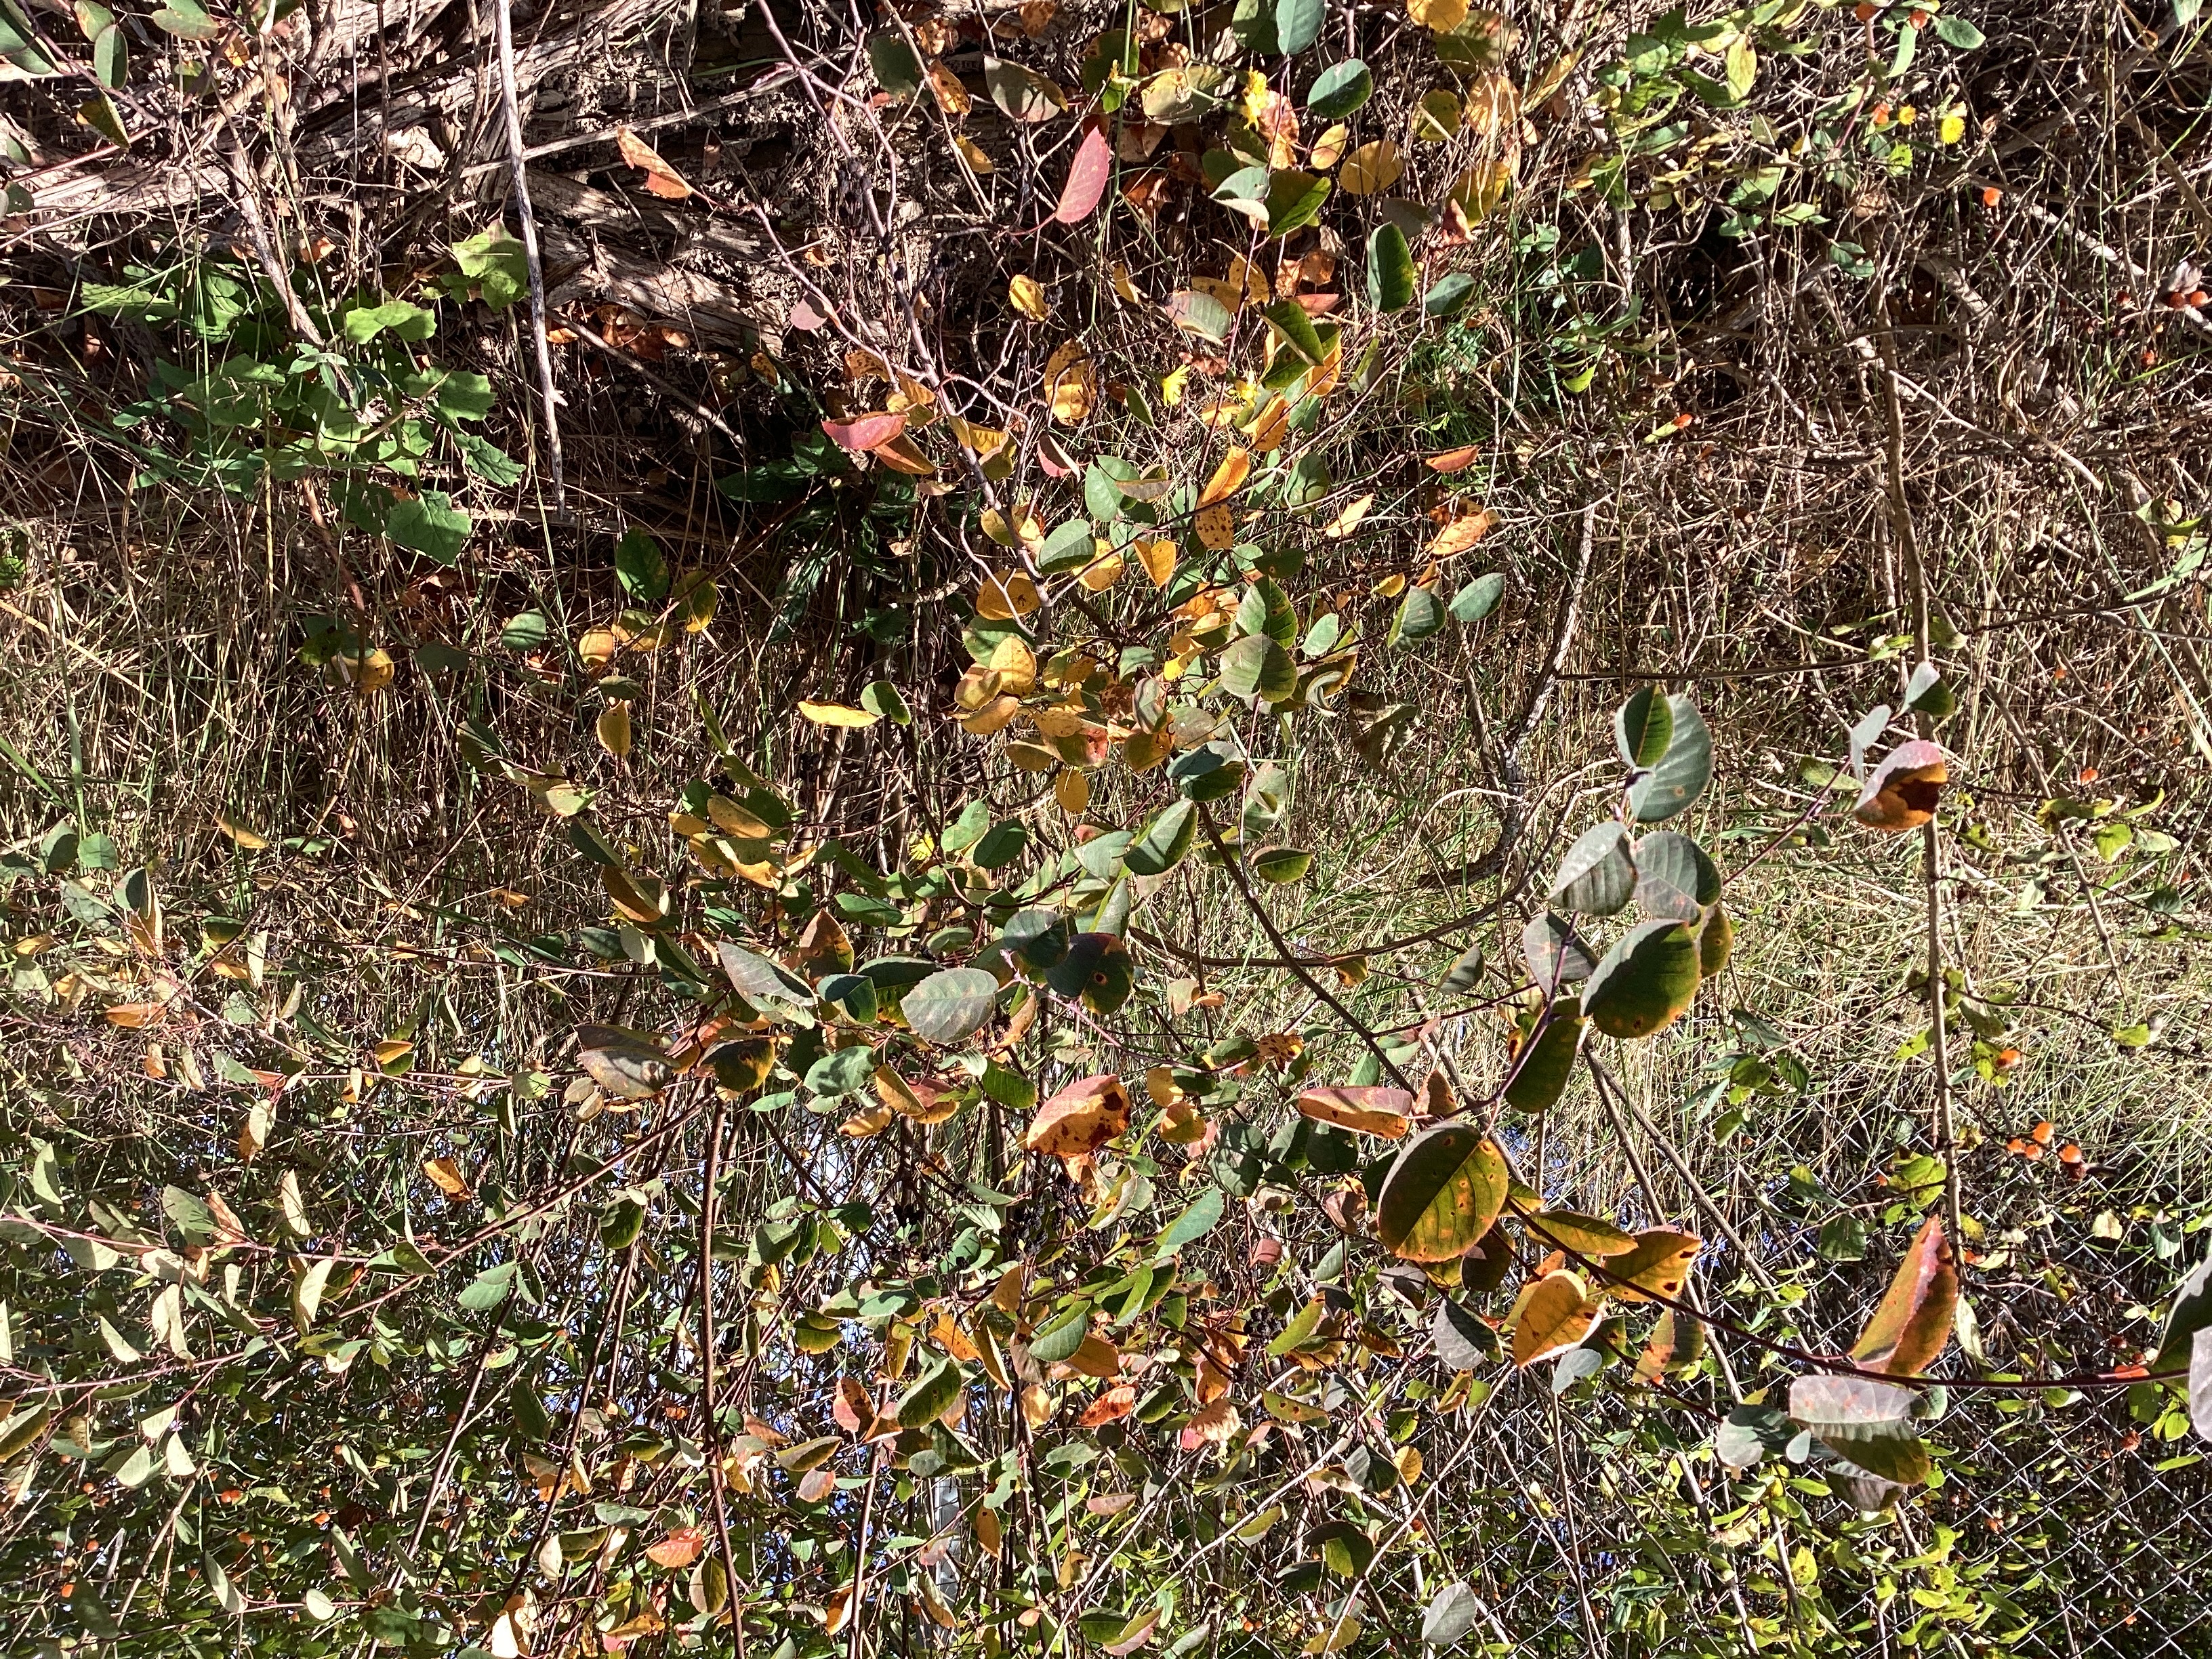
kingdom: Plantae
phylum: Tracheophyta
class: Magnoliopsida
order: Rosales
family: Rosaceae
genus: Amelanchier
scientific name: Amelanchier alnifolia
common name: taggblåhegg
